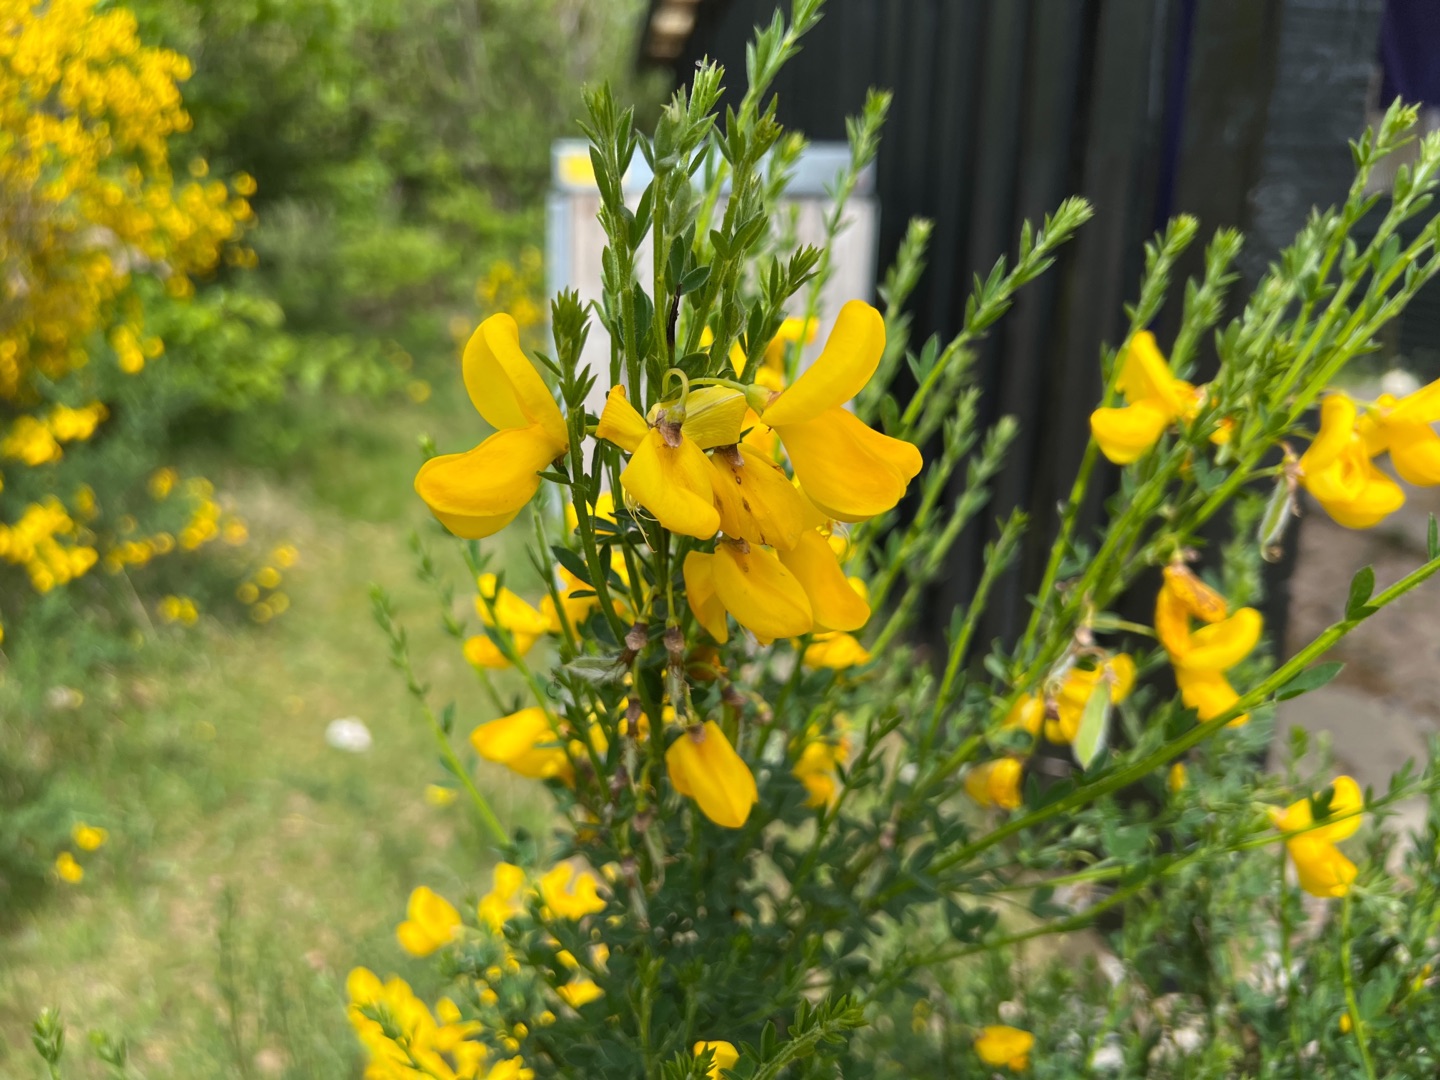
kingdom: Plantae
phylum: Tracheophyta
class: Magnoliopsida
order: Fabales
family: Fabaceae
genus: Cytisus
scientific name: Cytisus scoparius
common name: Almindelig gyvel
